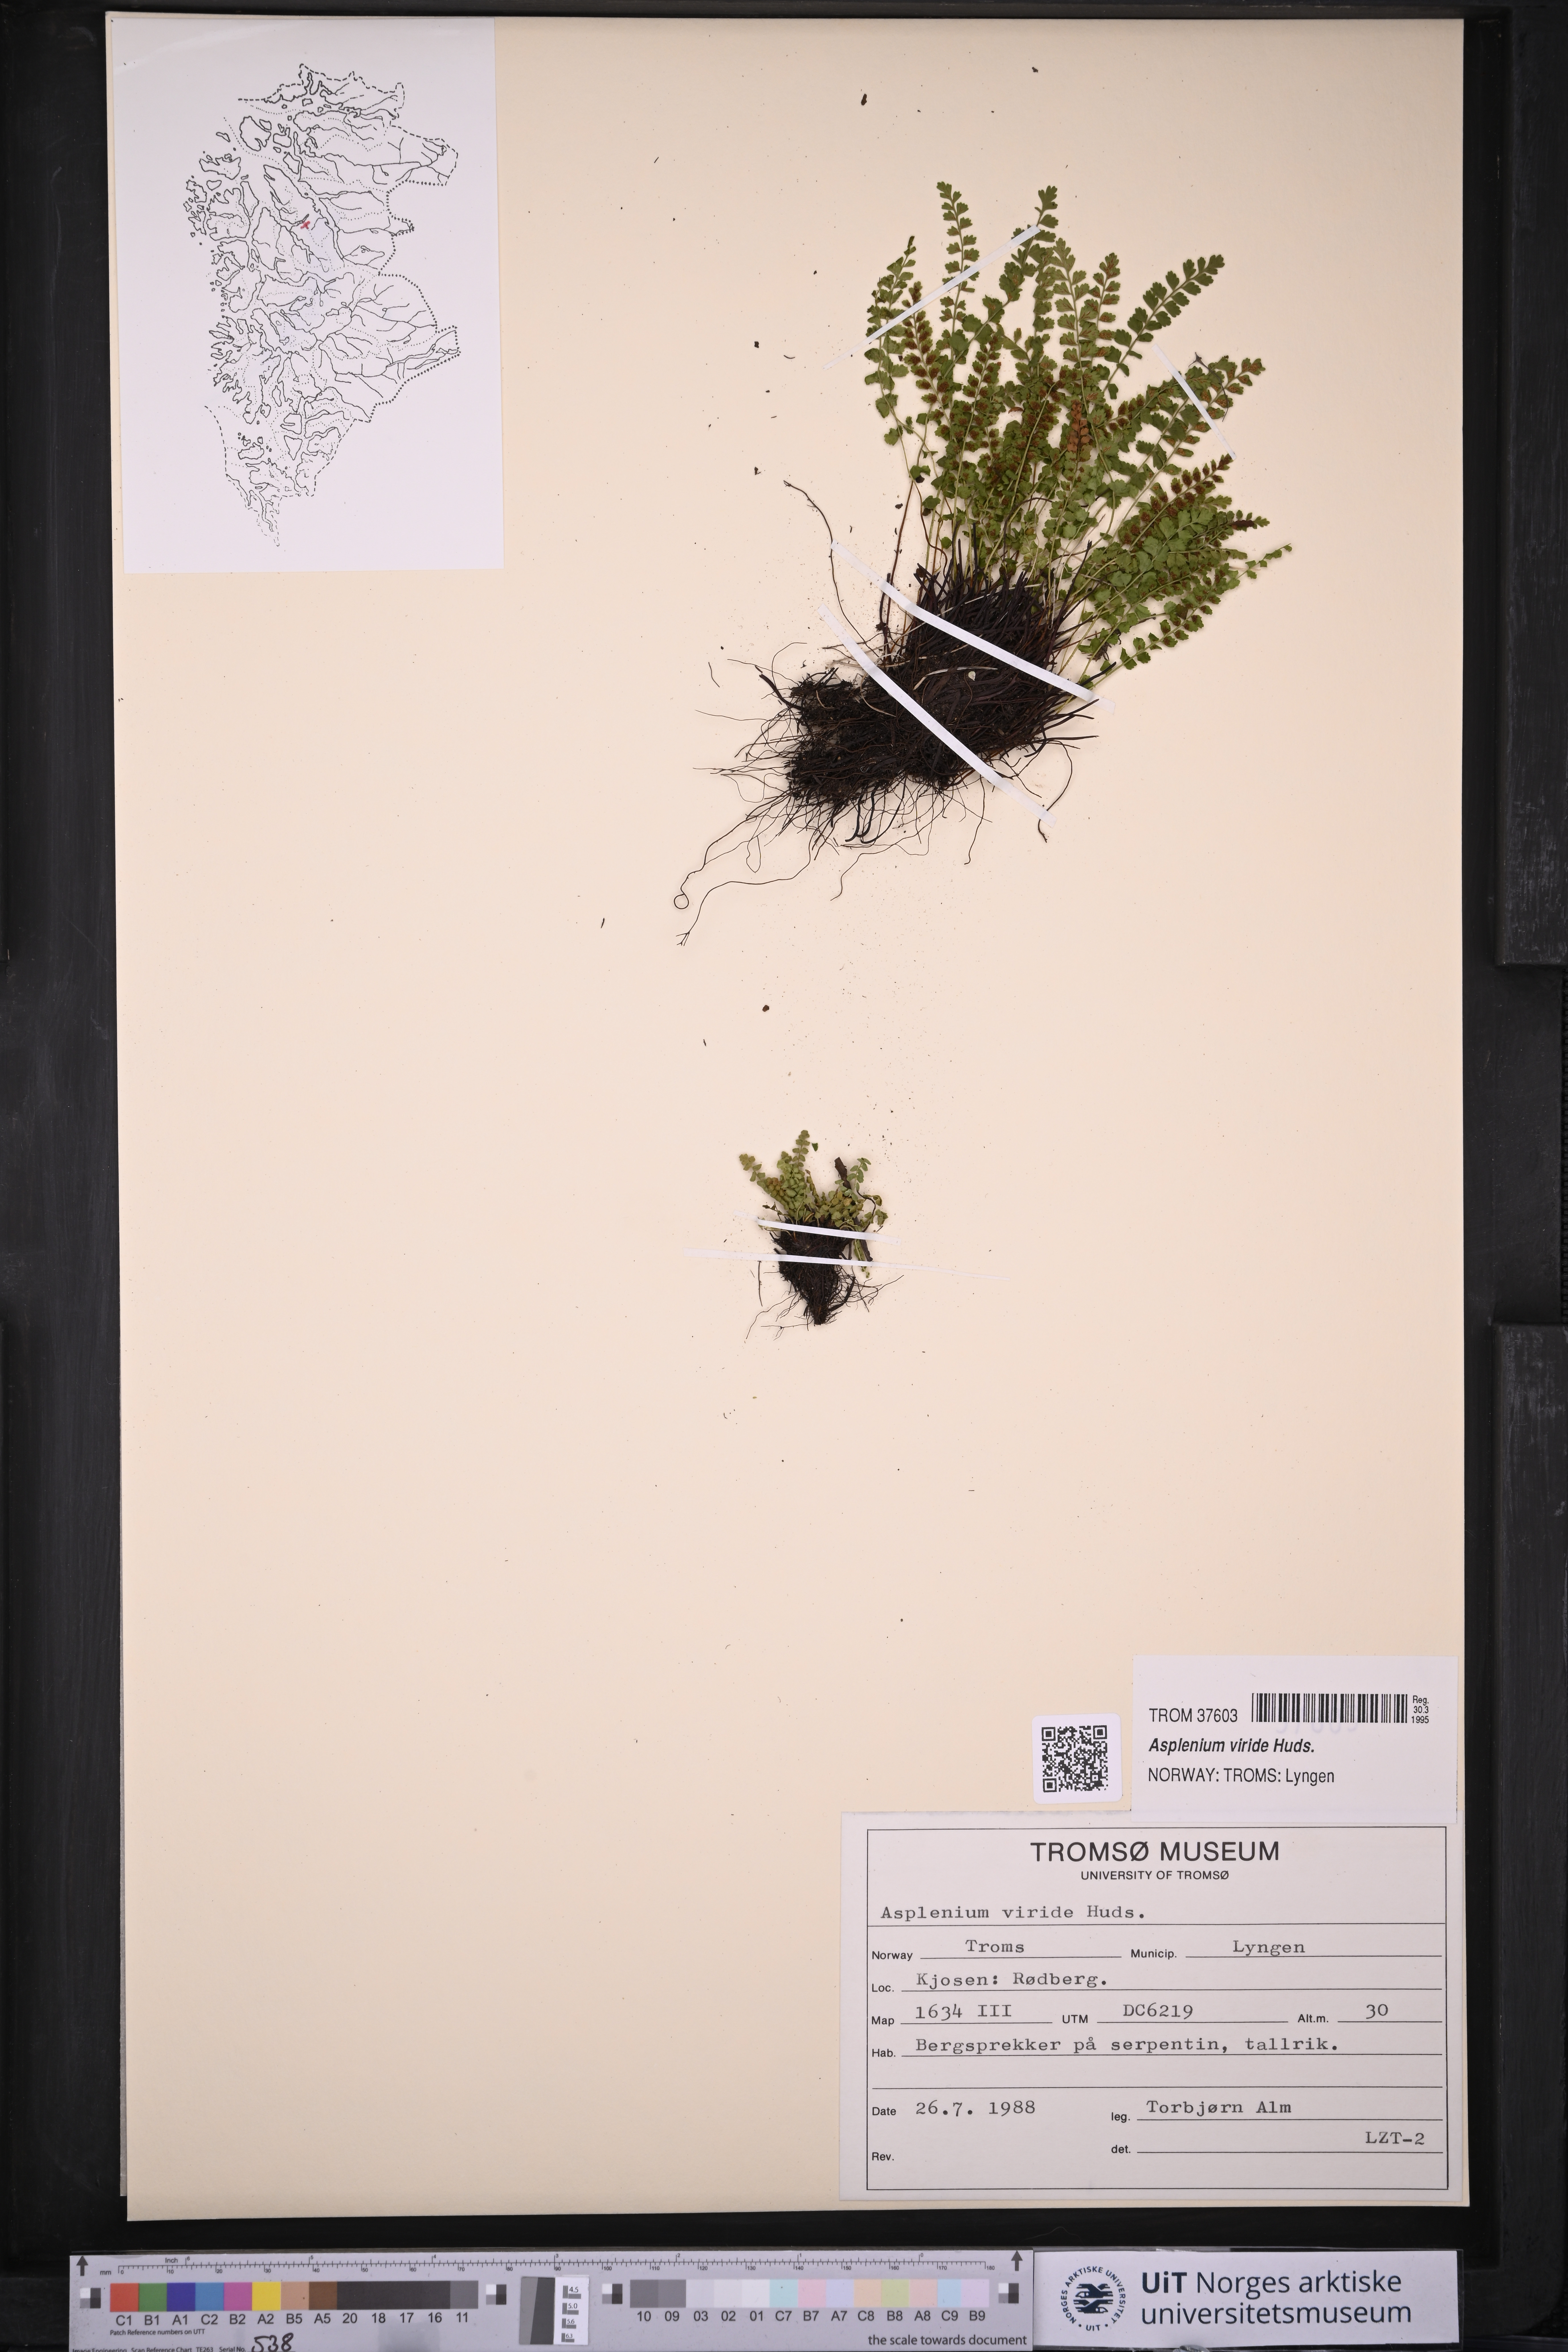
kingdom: Plantae
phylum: Tracheophyta
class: Polypodiopsida
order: Polypodiales
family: Aspleniaceae
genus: Asplenium
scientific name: Asplenium viride
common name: Green spleenwort
